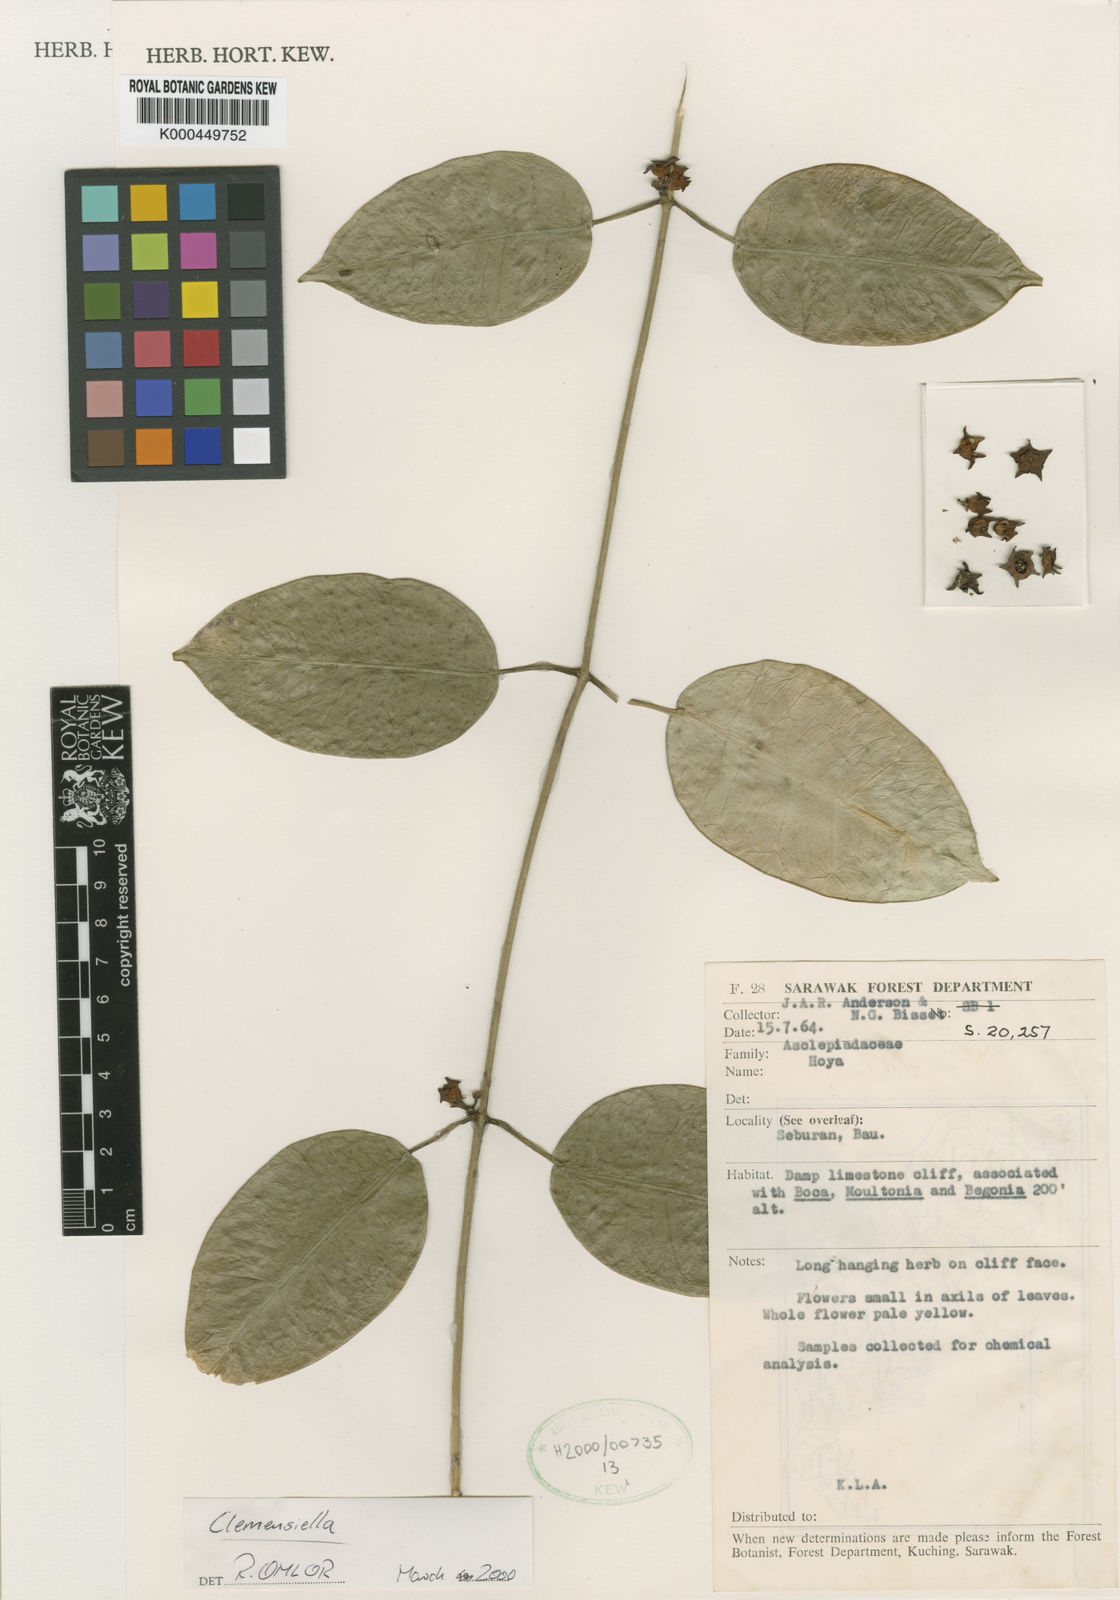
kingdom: Plantae
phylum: Tracheophyta
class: Magnoliopsida
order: Gentianales
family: Apocynaceae
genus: Hoya
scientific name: Hoya omlorii
